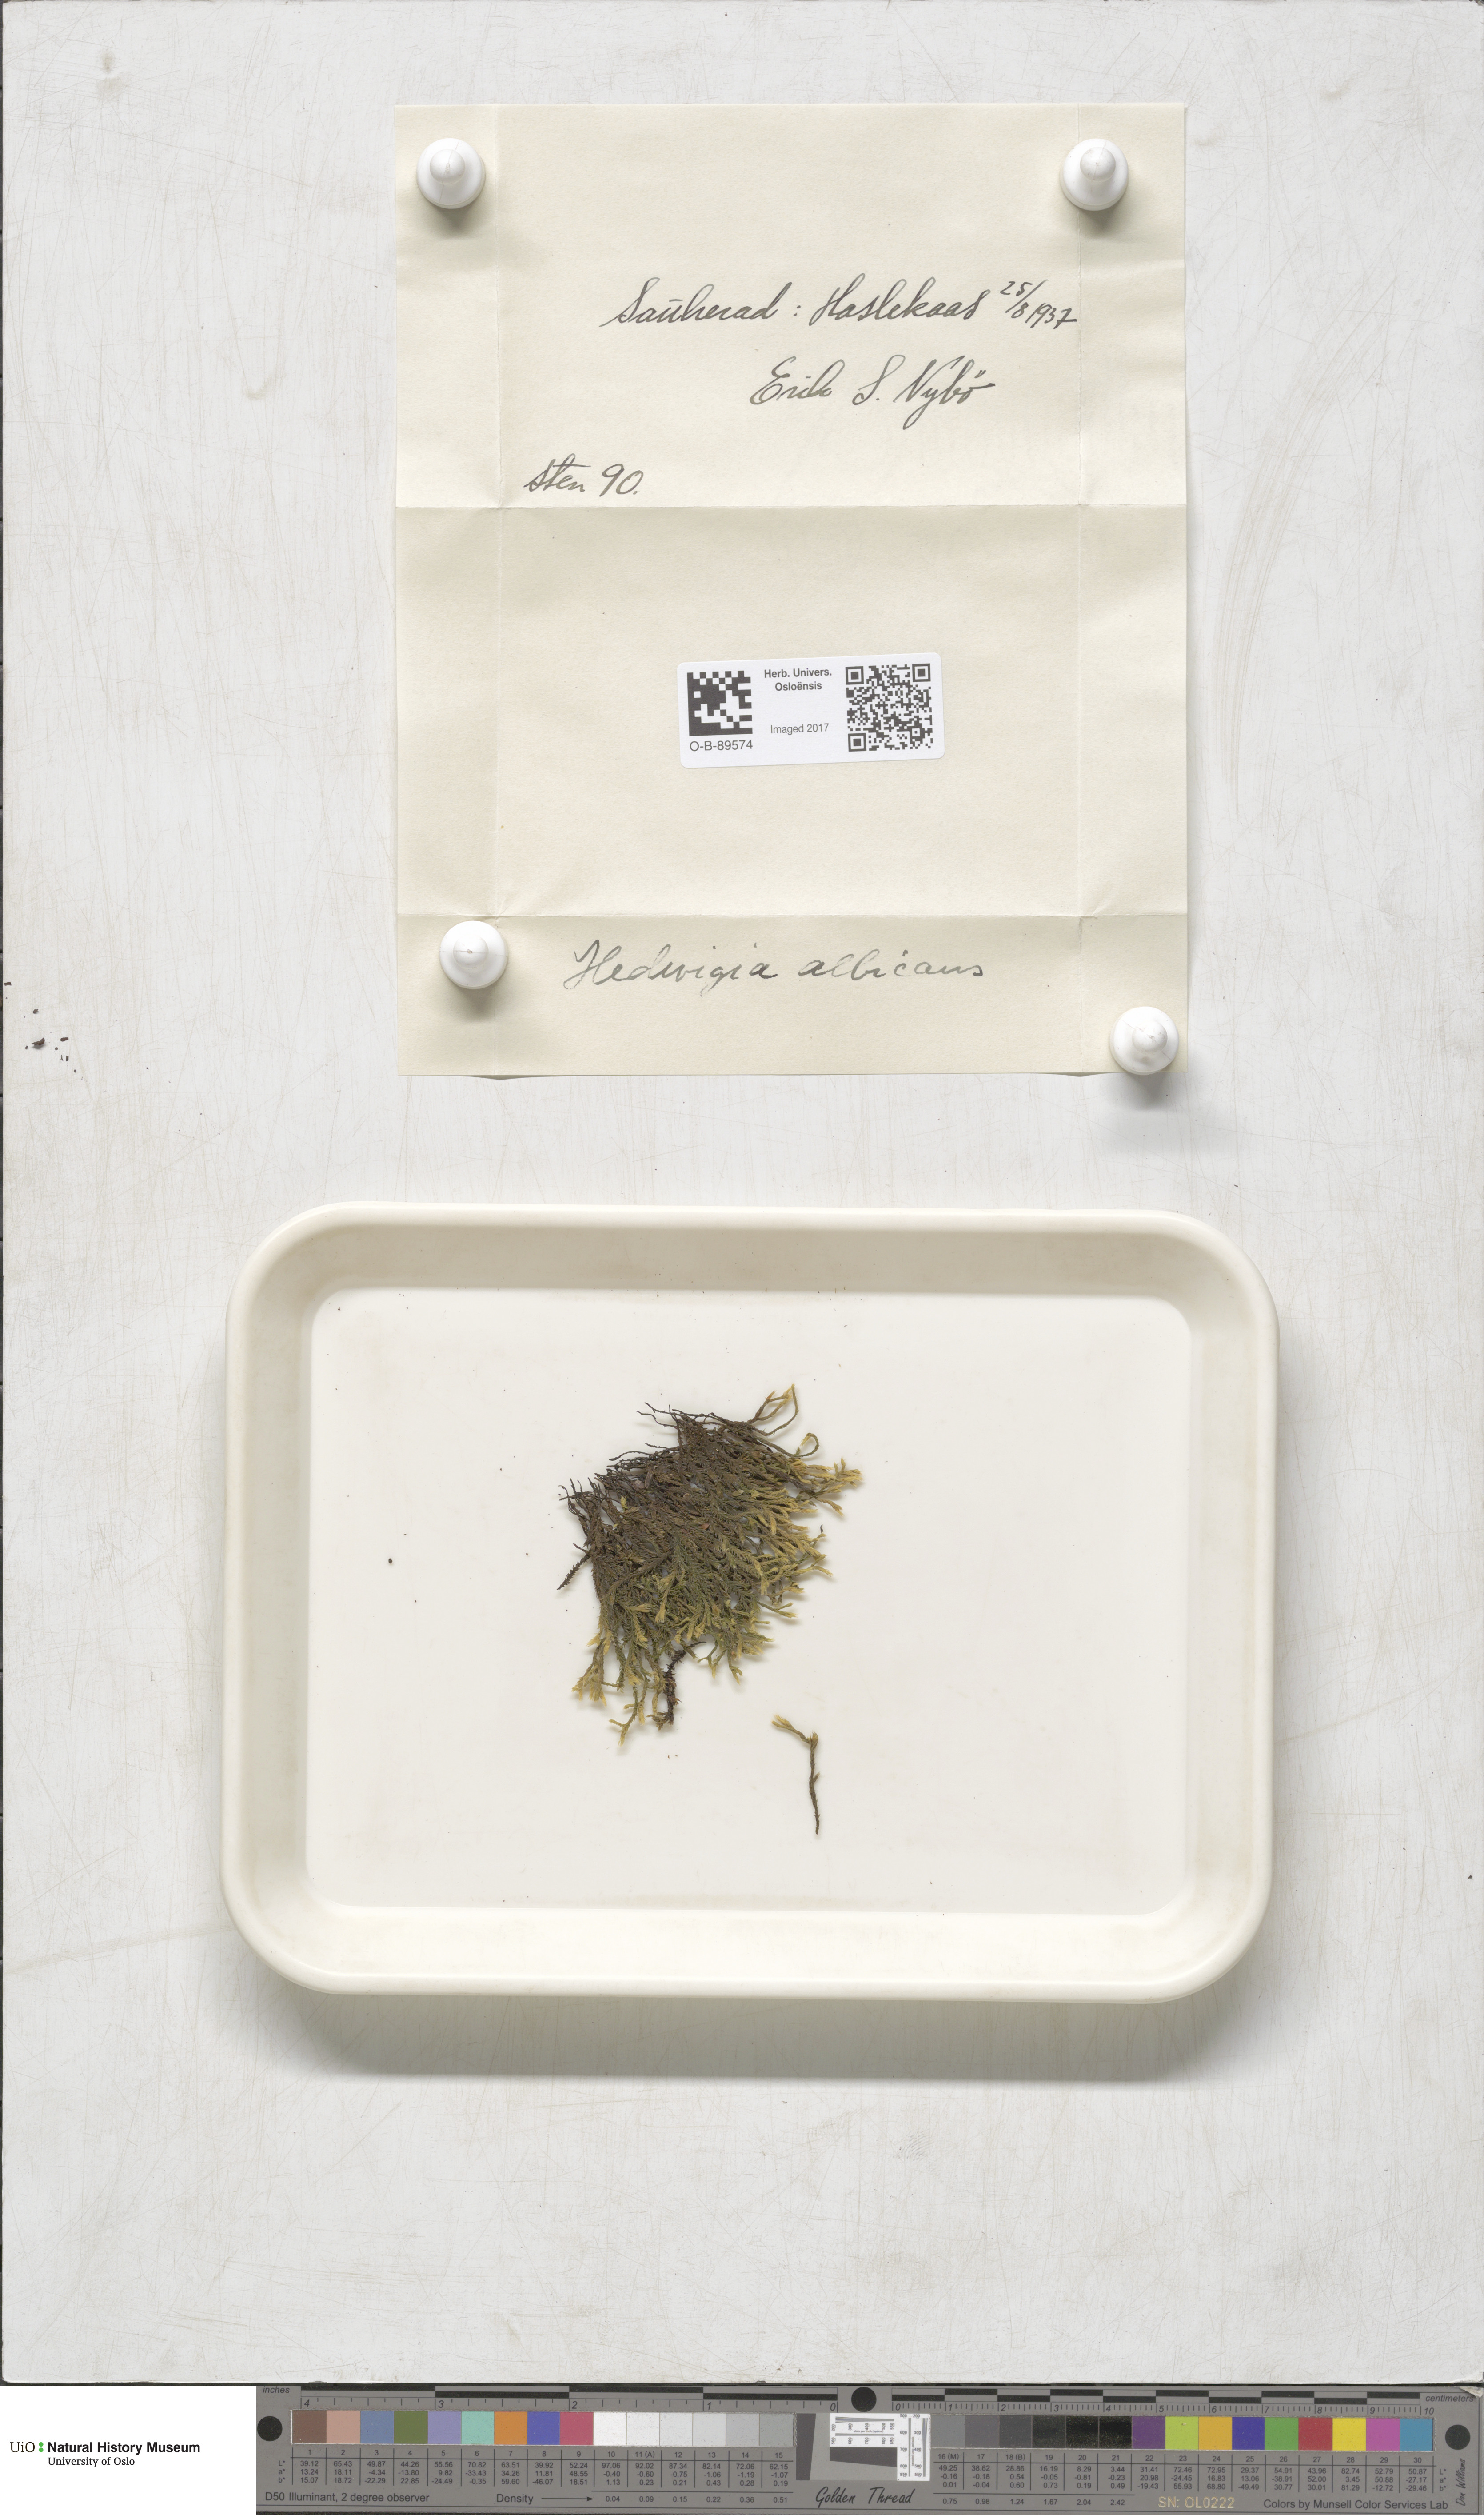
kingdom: Plantae
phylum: Bryophyta
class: Bryopsida
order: Hedwigiales
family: Hedwigiaceae
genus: Hedwigia
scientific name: Hedwigia ciliata
